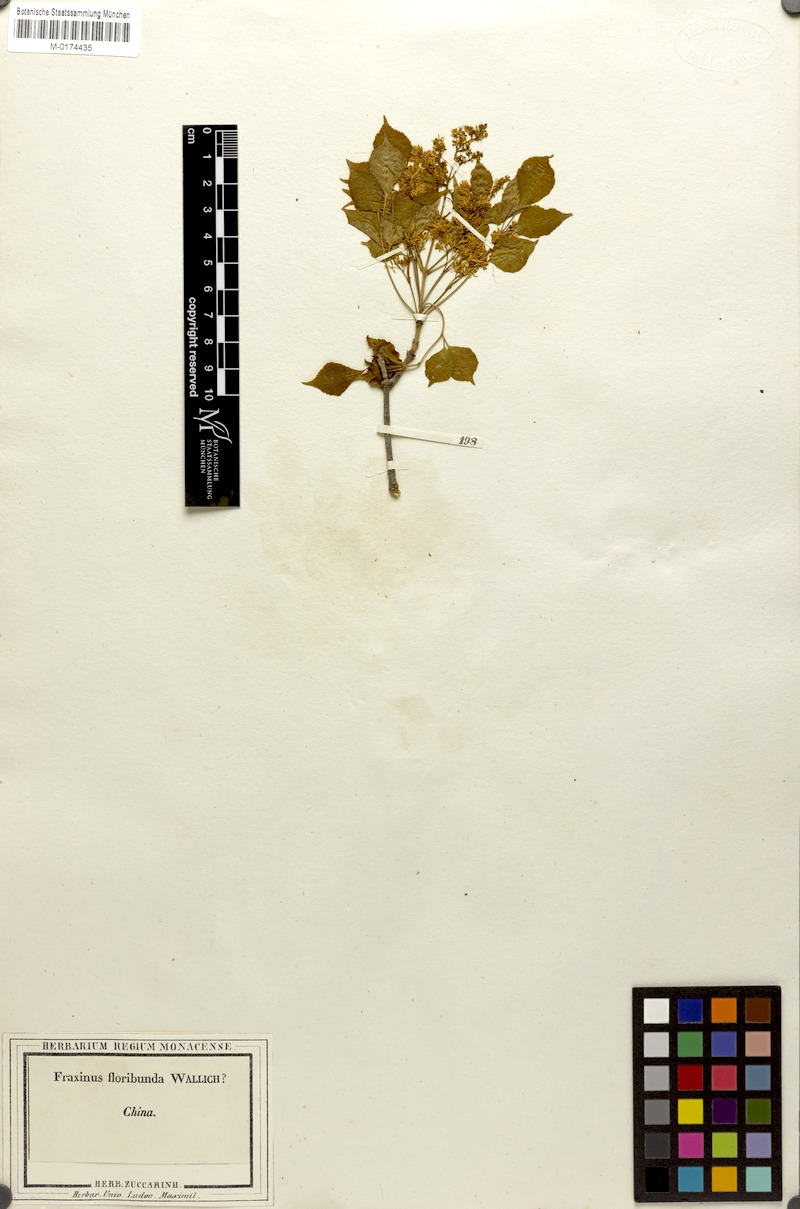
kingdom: Plantae
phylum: Tracheophyta
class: Magnoliopsida
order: Lamiales
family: Oleaceae
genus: Fraxinus
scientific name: Fraxinus bungeana
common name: Northern ash
